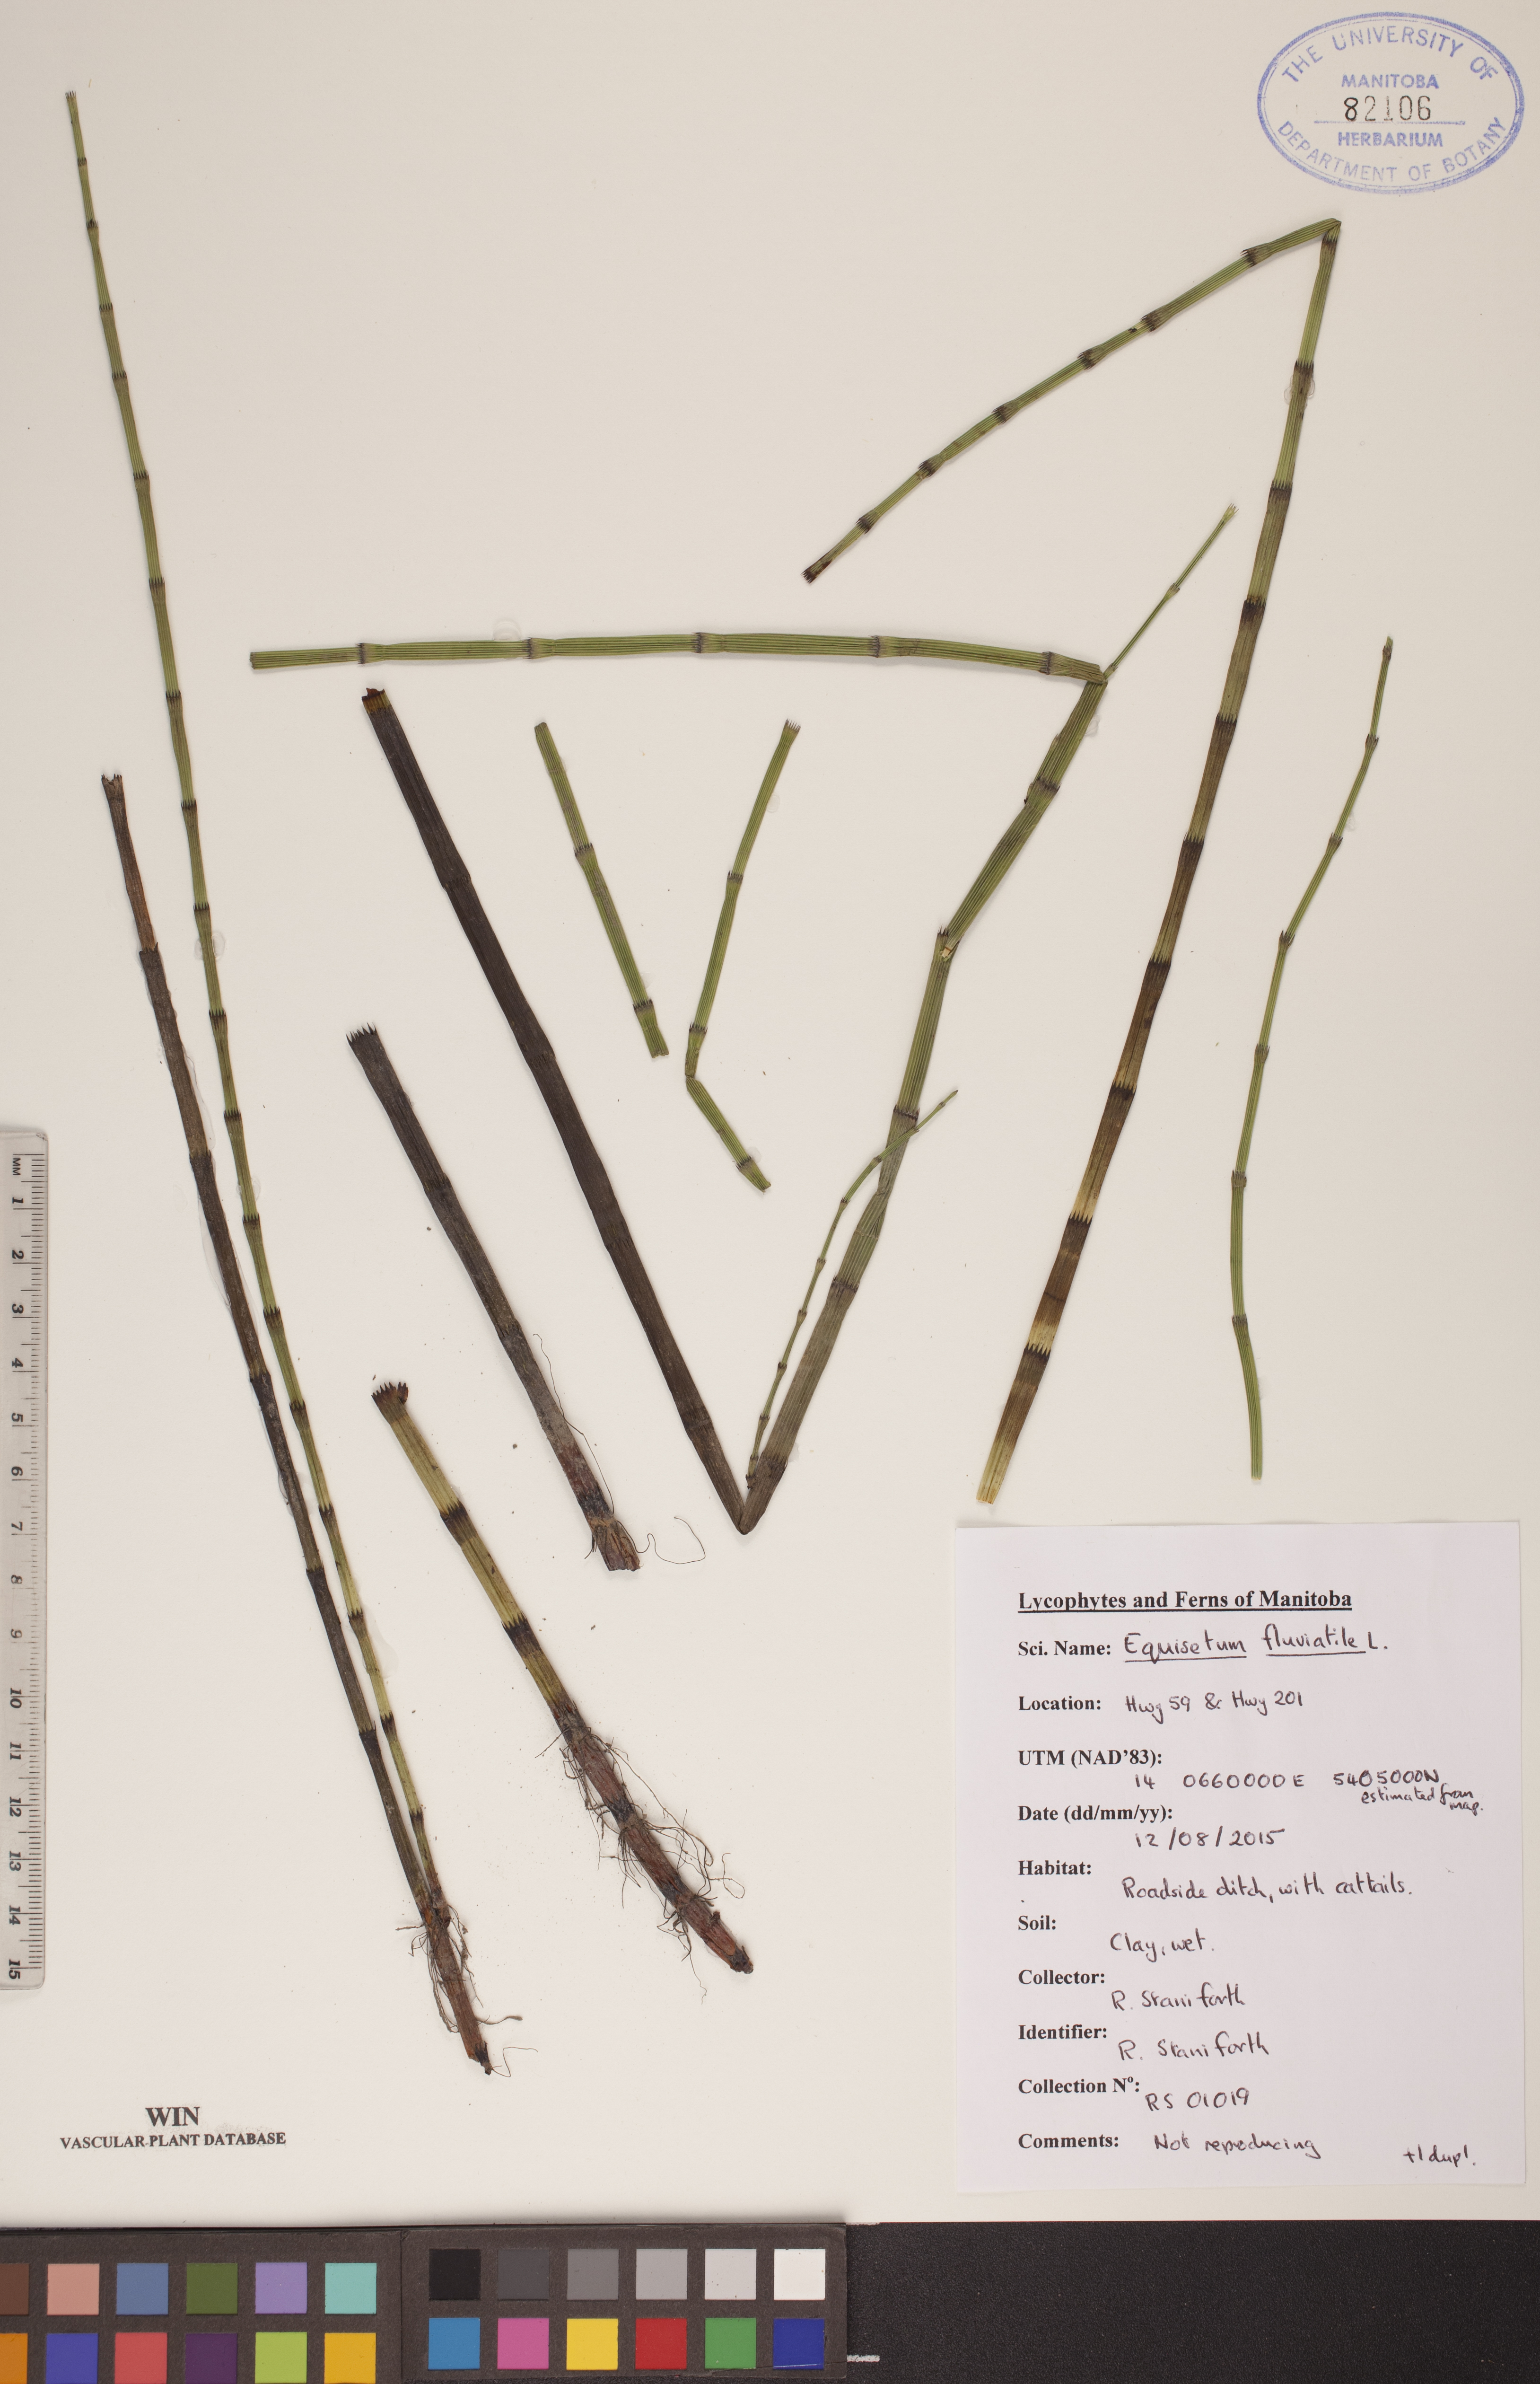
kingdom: Plantae
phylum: Tracheophyta
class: Polypodiopsida
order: Equisetales
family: Equisetaceae
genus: Equisetum
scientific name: Equisetum fluviatile
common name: Water horsetail
